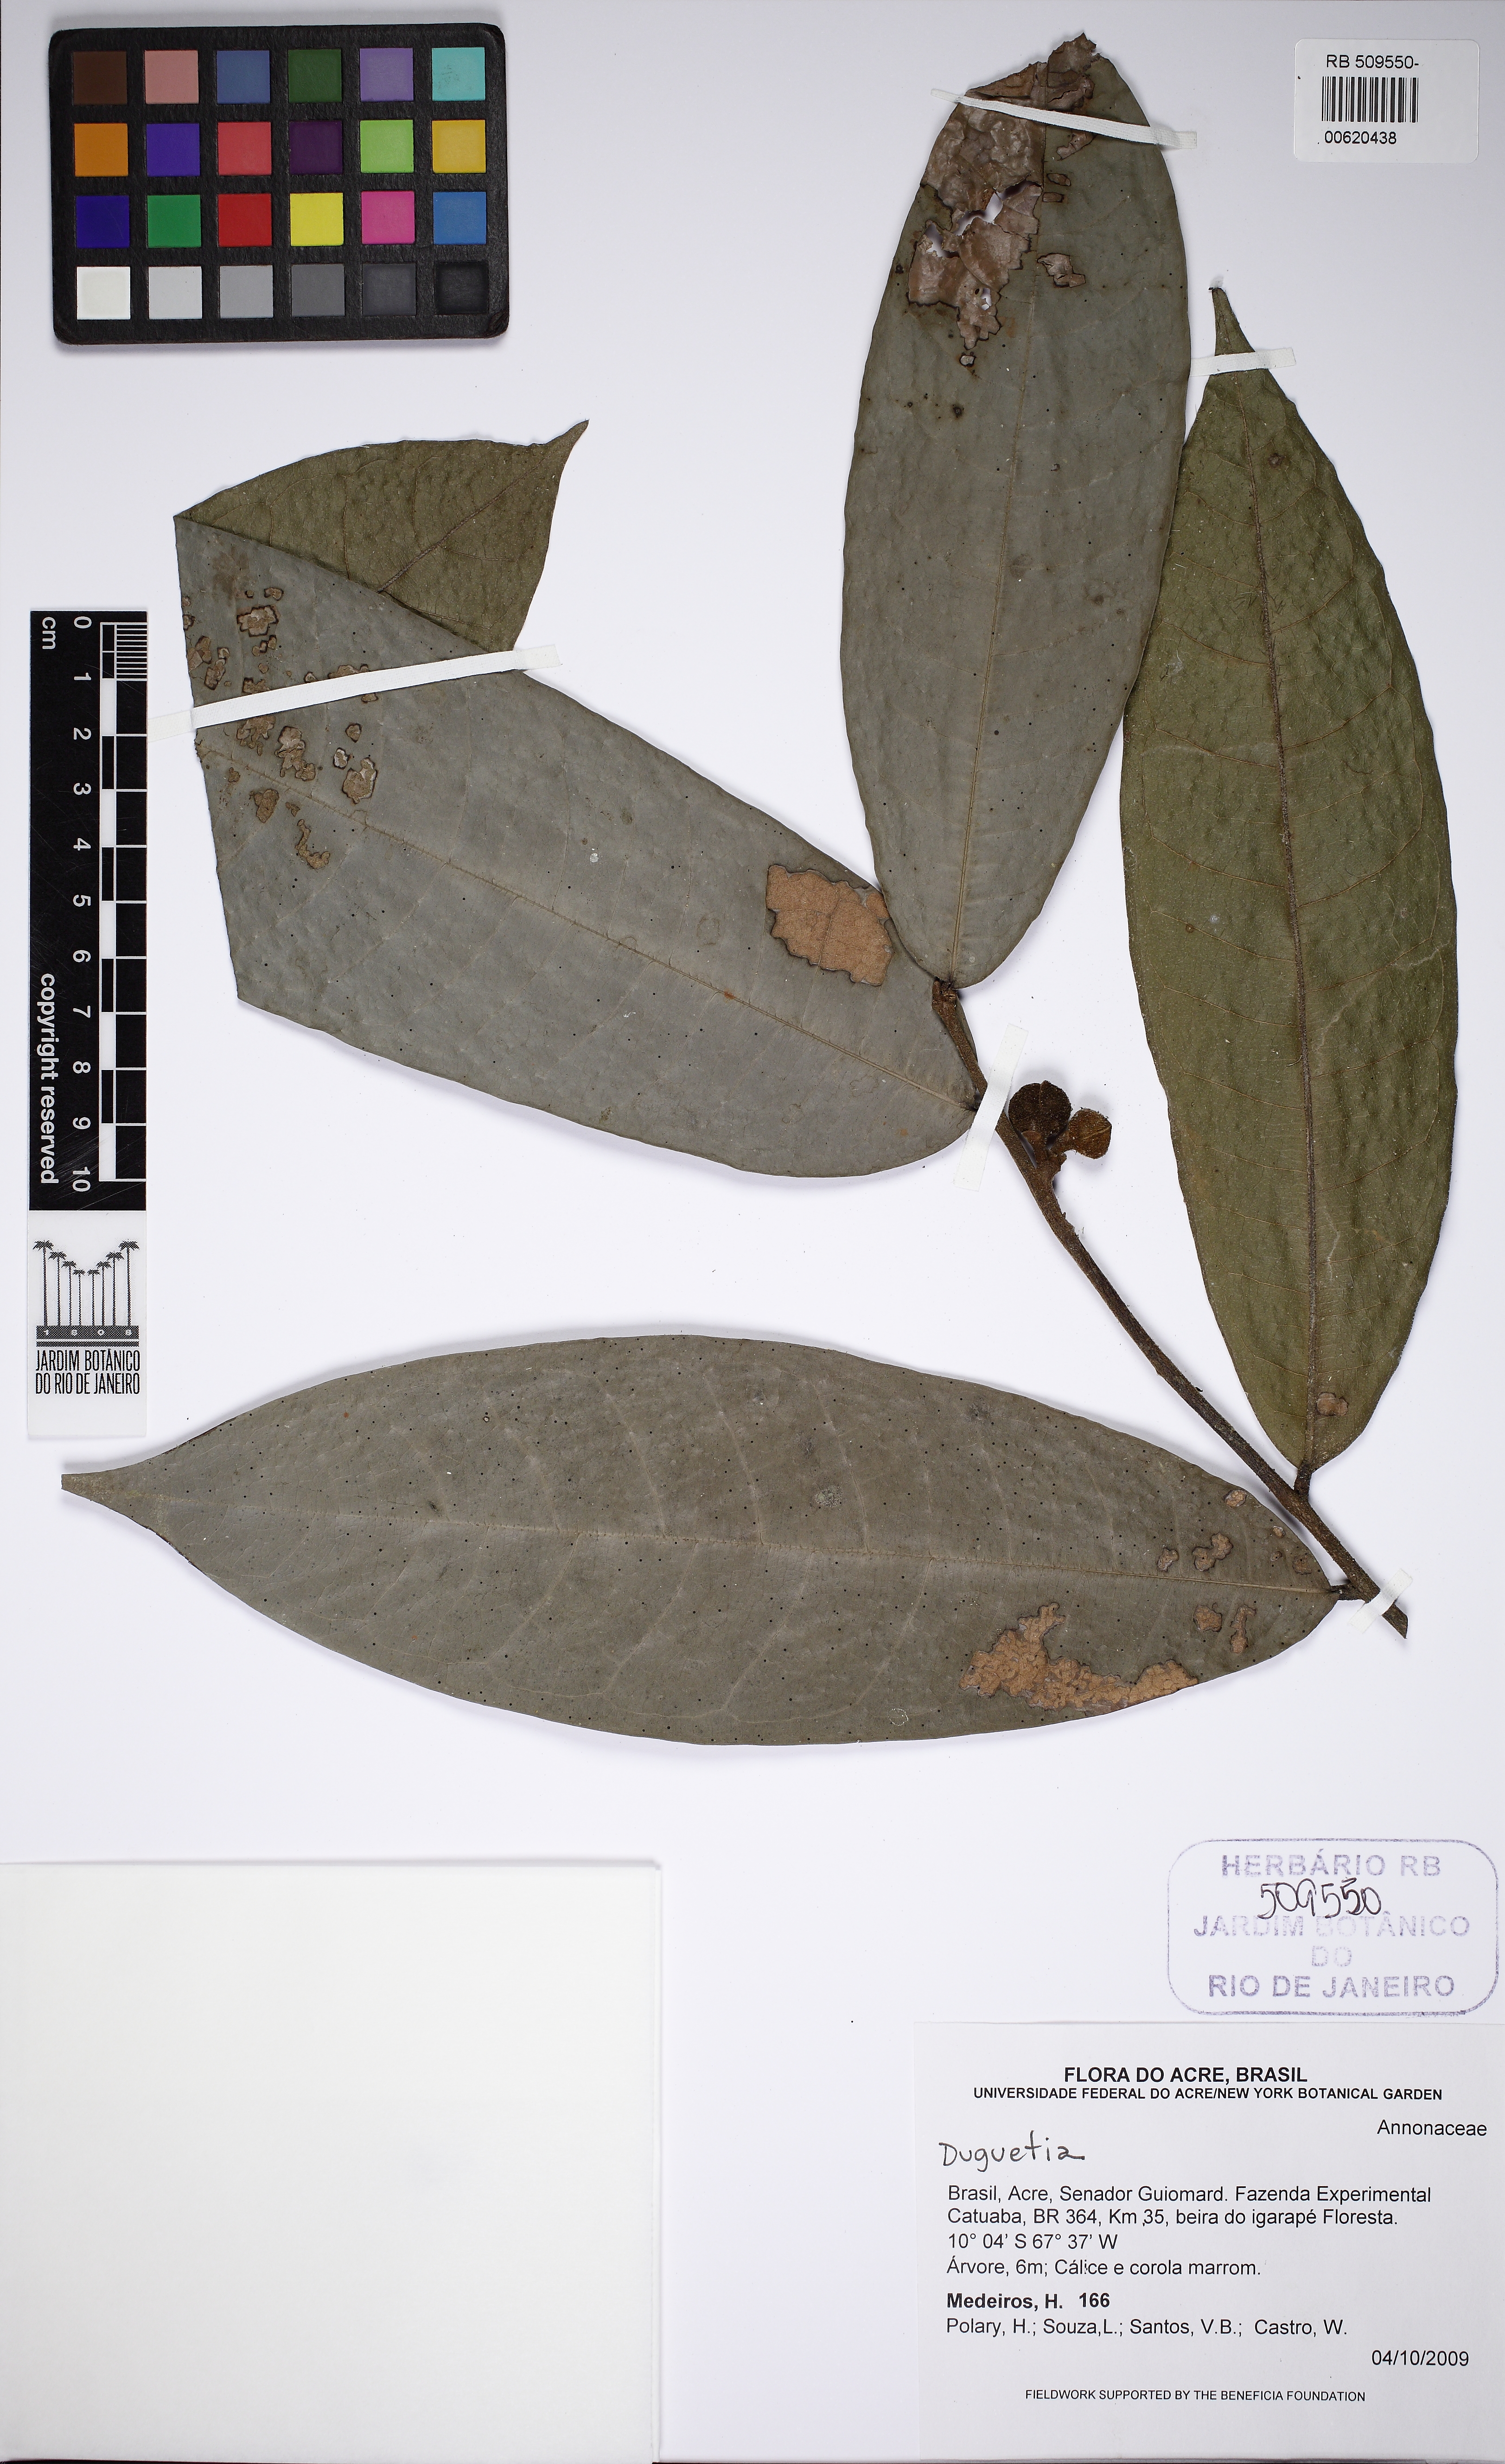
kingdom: Plantae
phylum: Tracheophyta
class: Magnoliopsida
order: Magnoliales
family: Annonaceae
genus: Duguetia
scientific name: Duguetia
